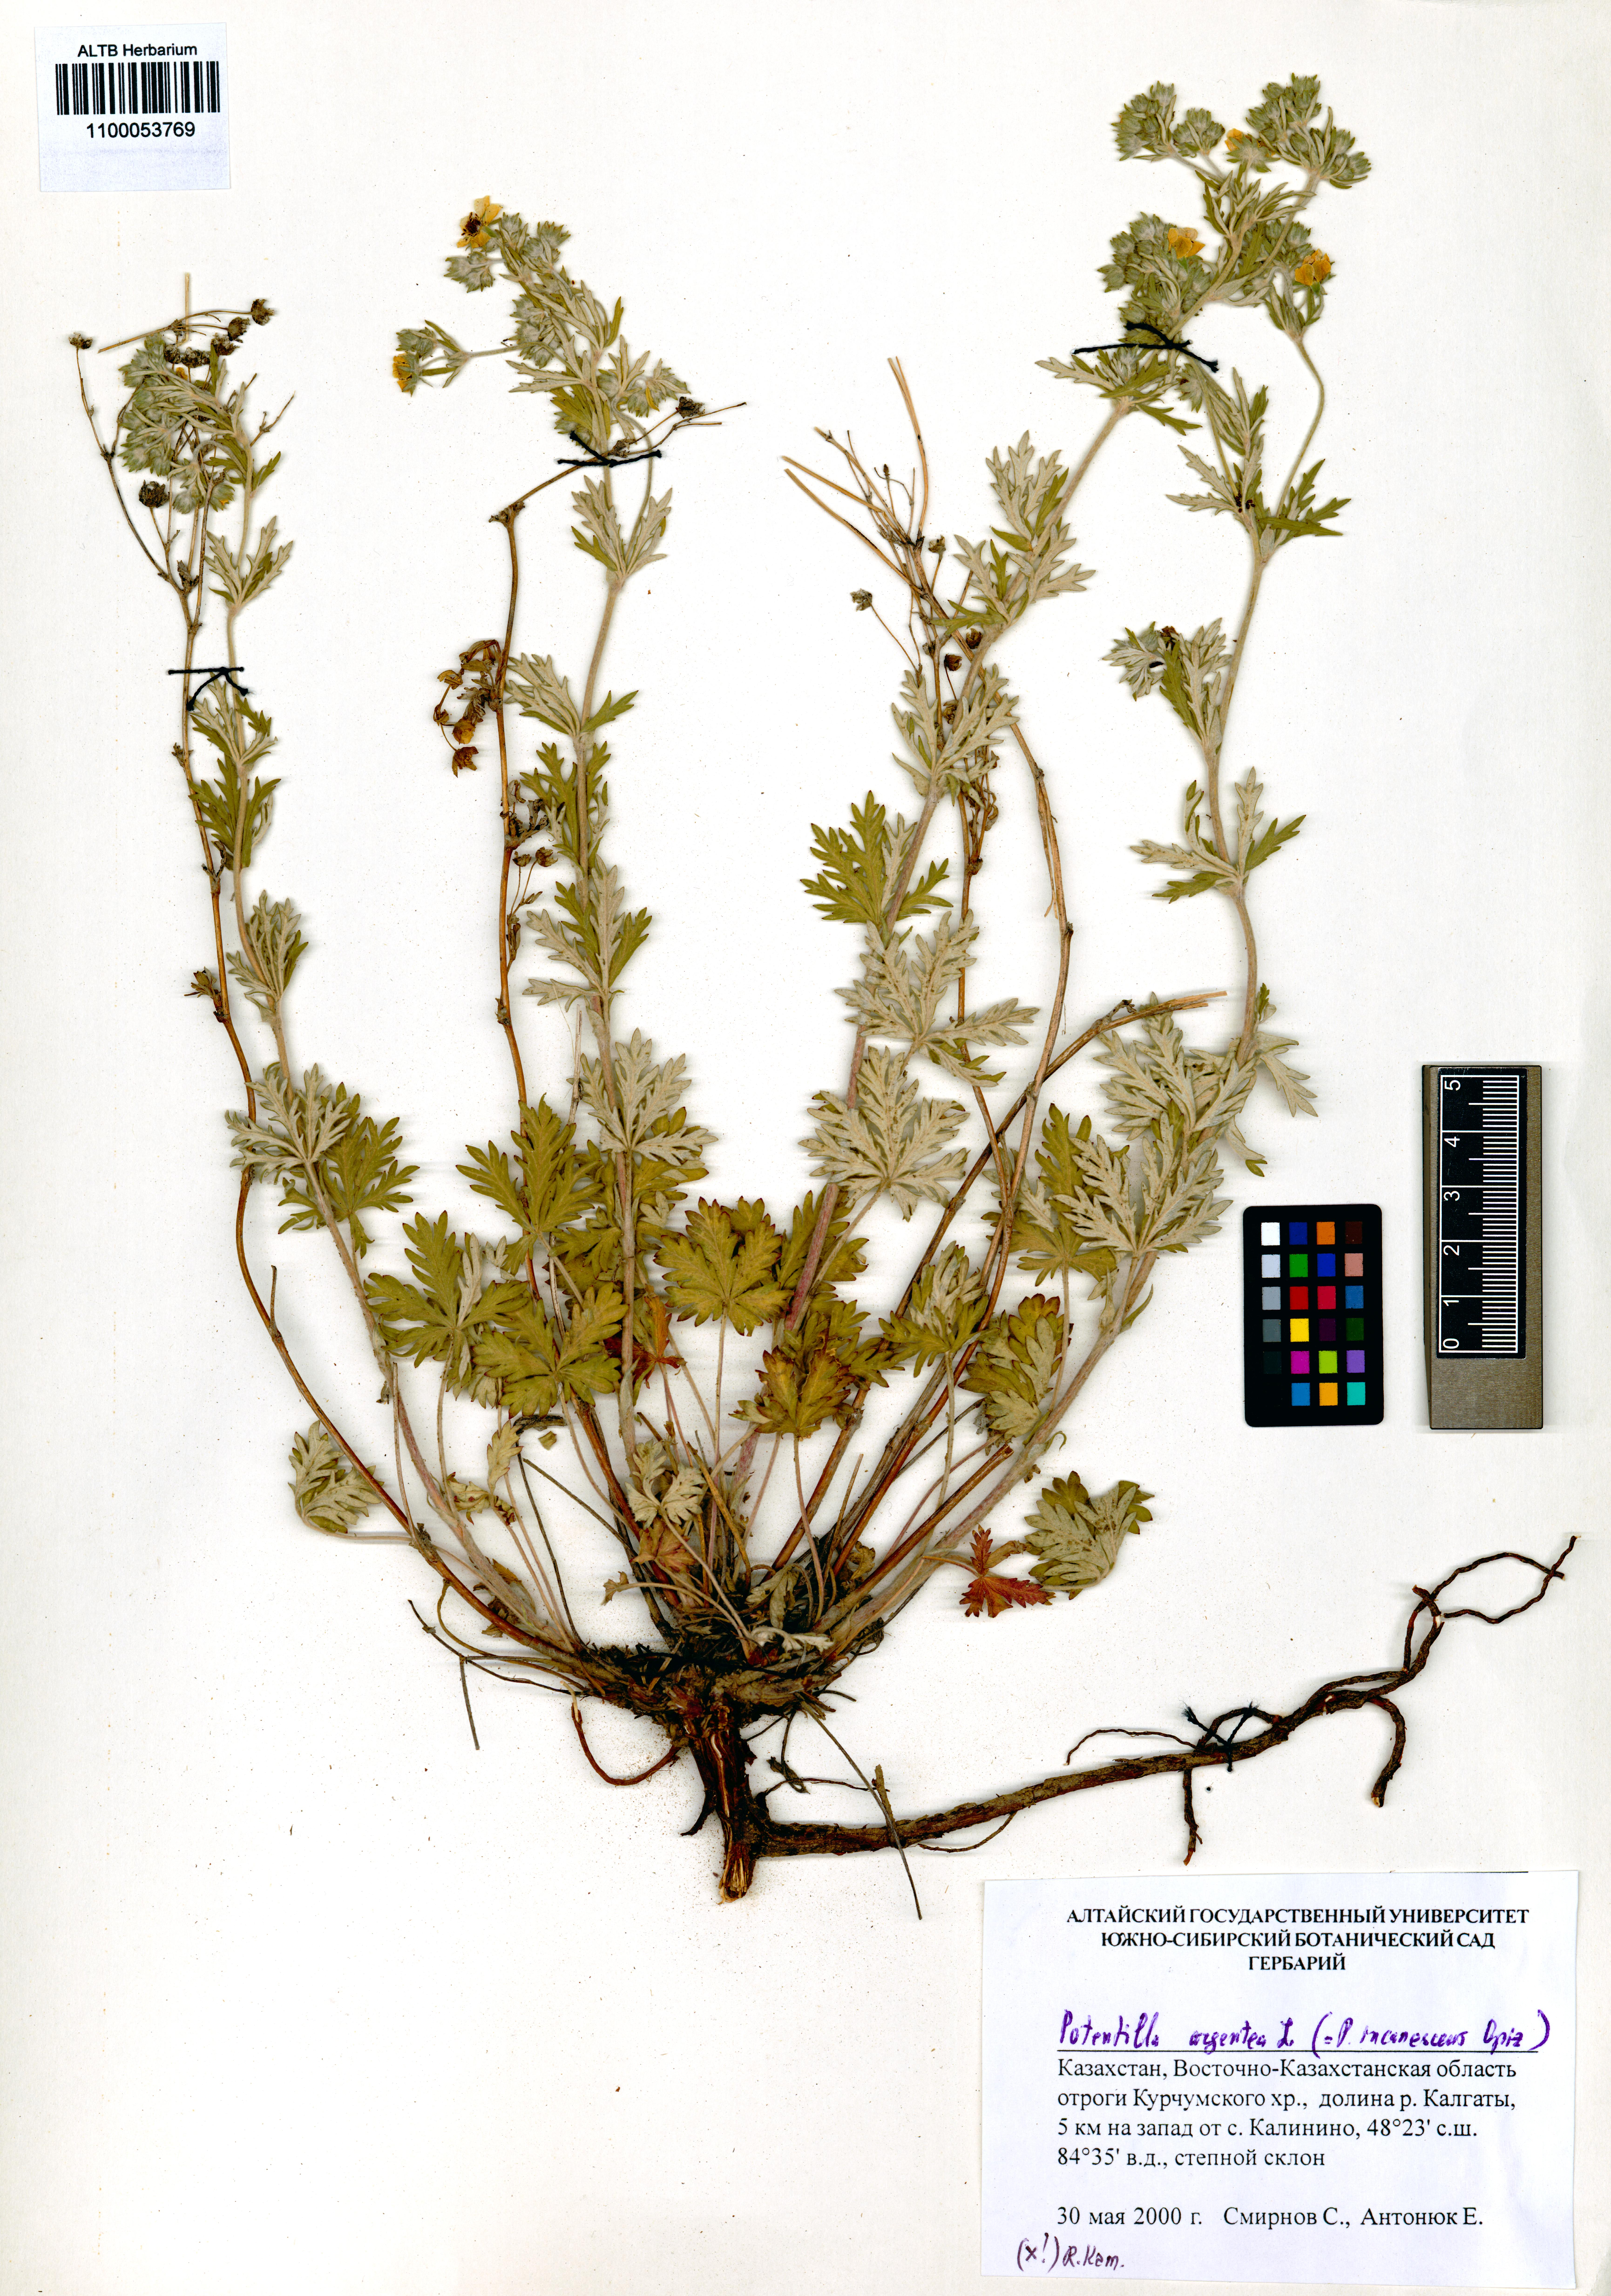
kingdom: Plantae
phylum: Tracheophyta
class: Magnoliopsida
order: Rosales
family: Rosaceae
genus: Potentilla
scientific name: Potentilla argentea
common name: Hoary cinquefoil
